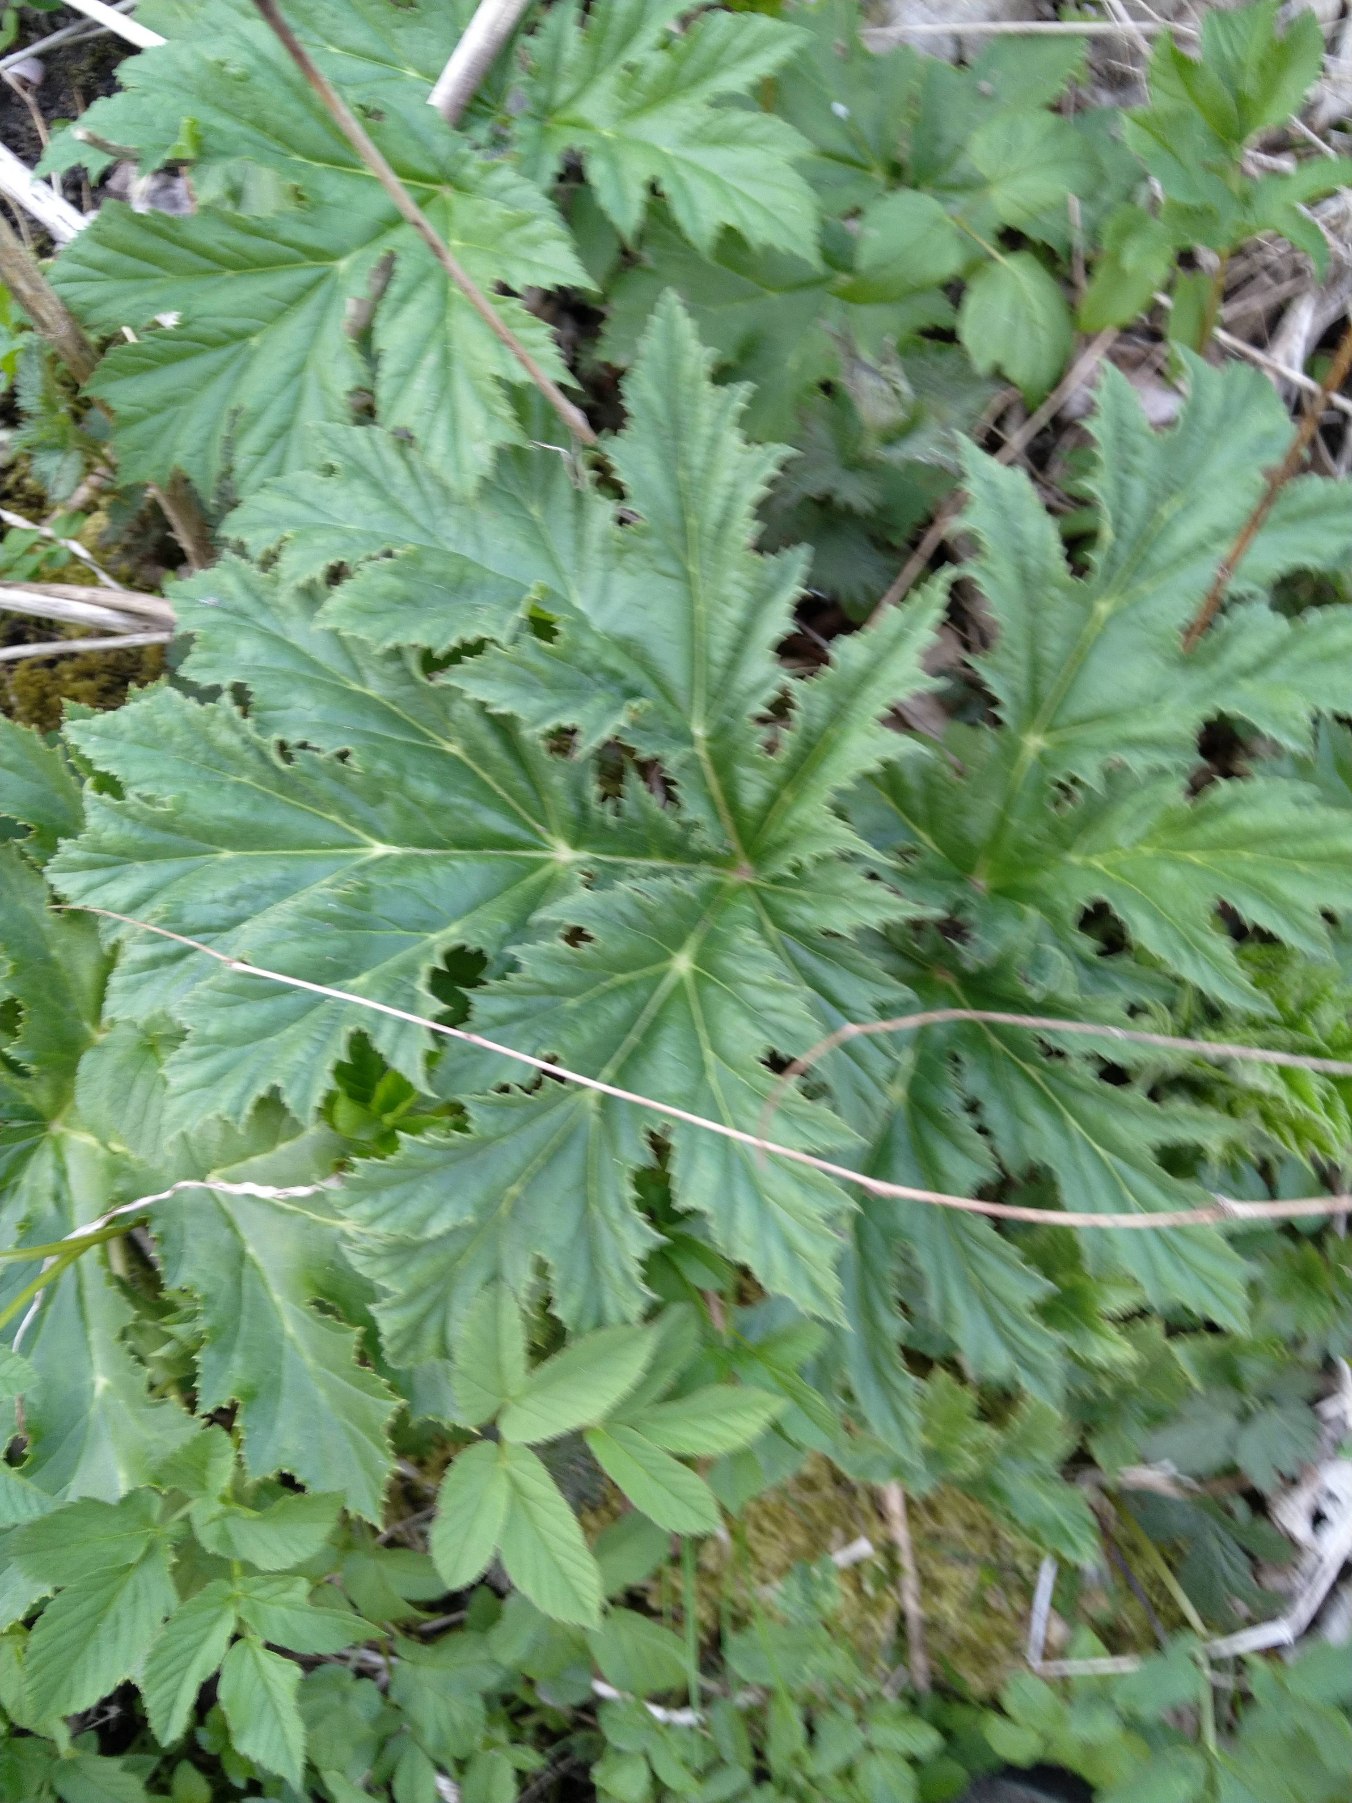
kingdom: Plantae
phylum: Tracheophyta
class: Magnoliopsida
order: Apiales
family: Apiaceae
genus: Heracleum
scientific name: Heracleum mantegazzianum
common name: Kæmpe-bjørneklo
